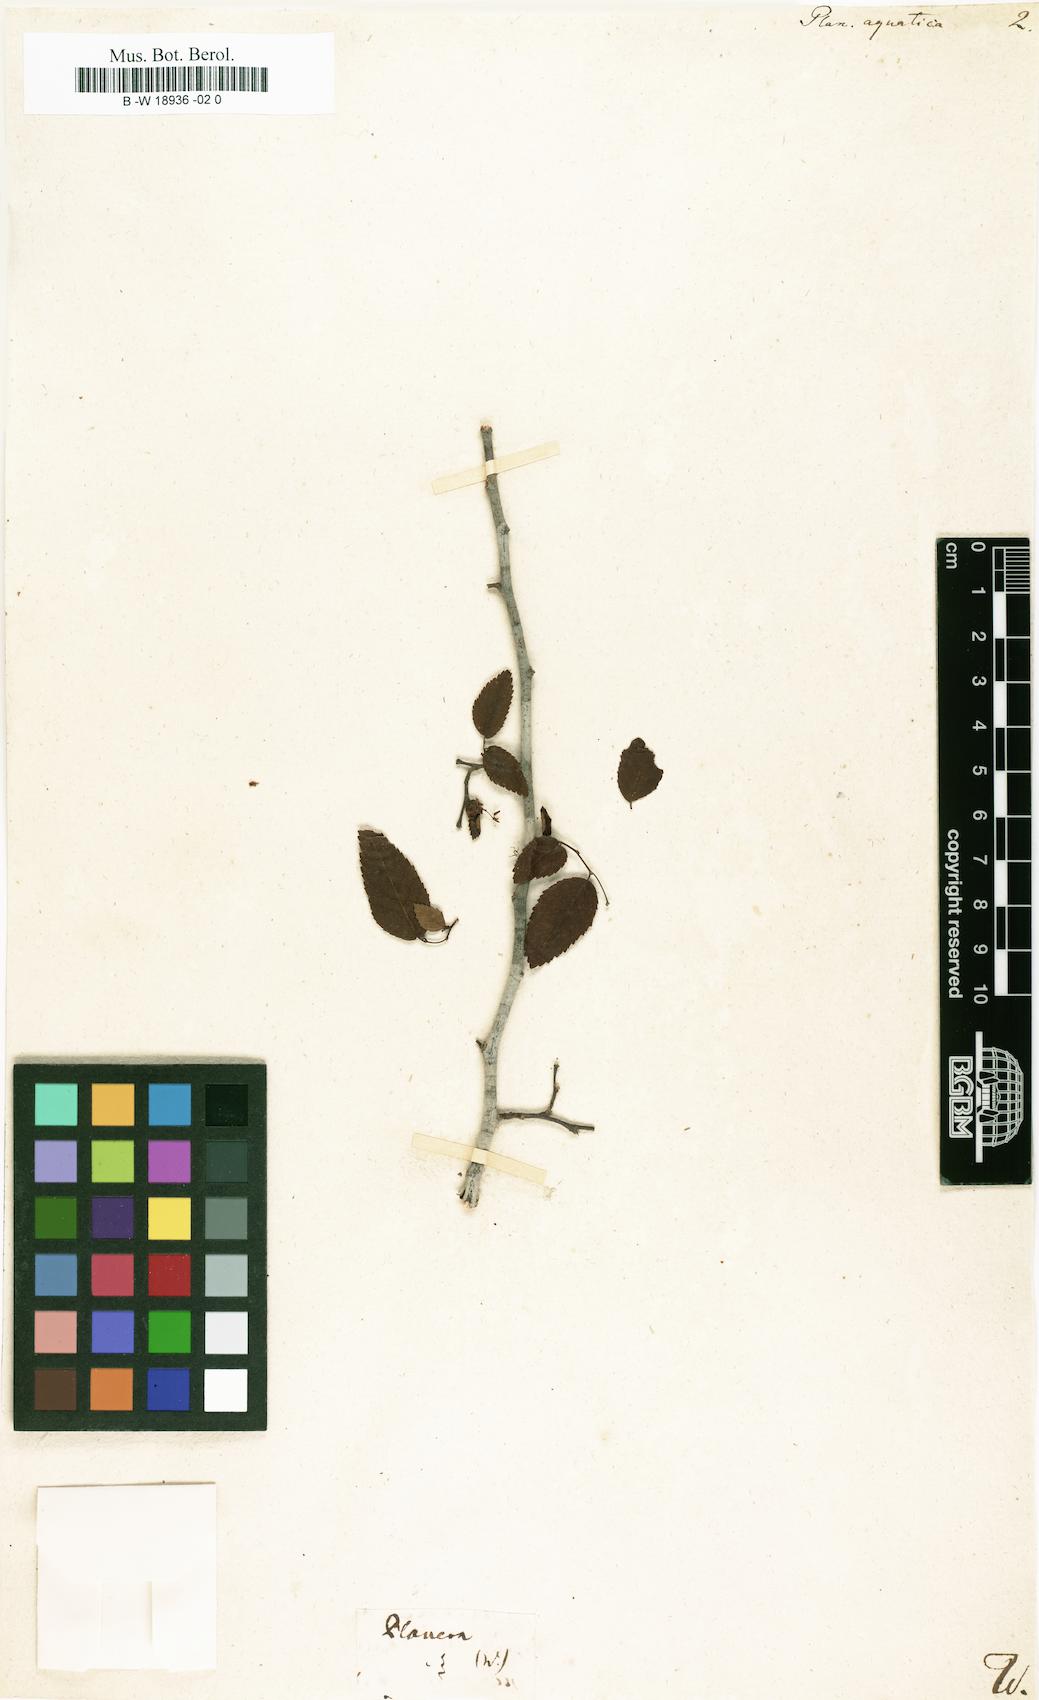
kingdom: Plantae
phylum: Tracheophyta
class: Magnoliopsida
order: Rosales
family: Ulmaceae
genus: Planera
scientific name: Planera aquatica
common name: Water-elm
